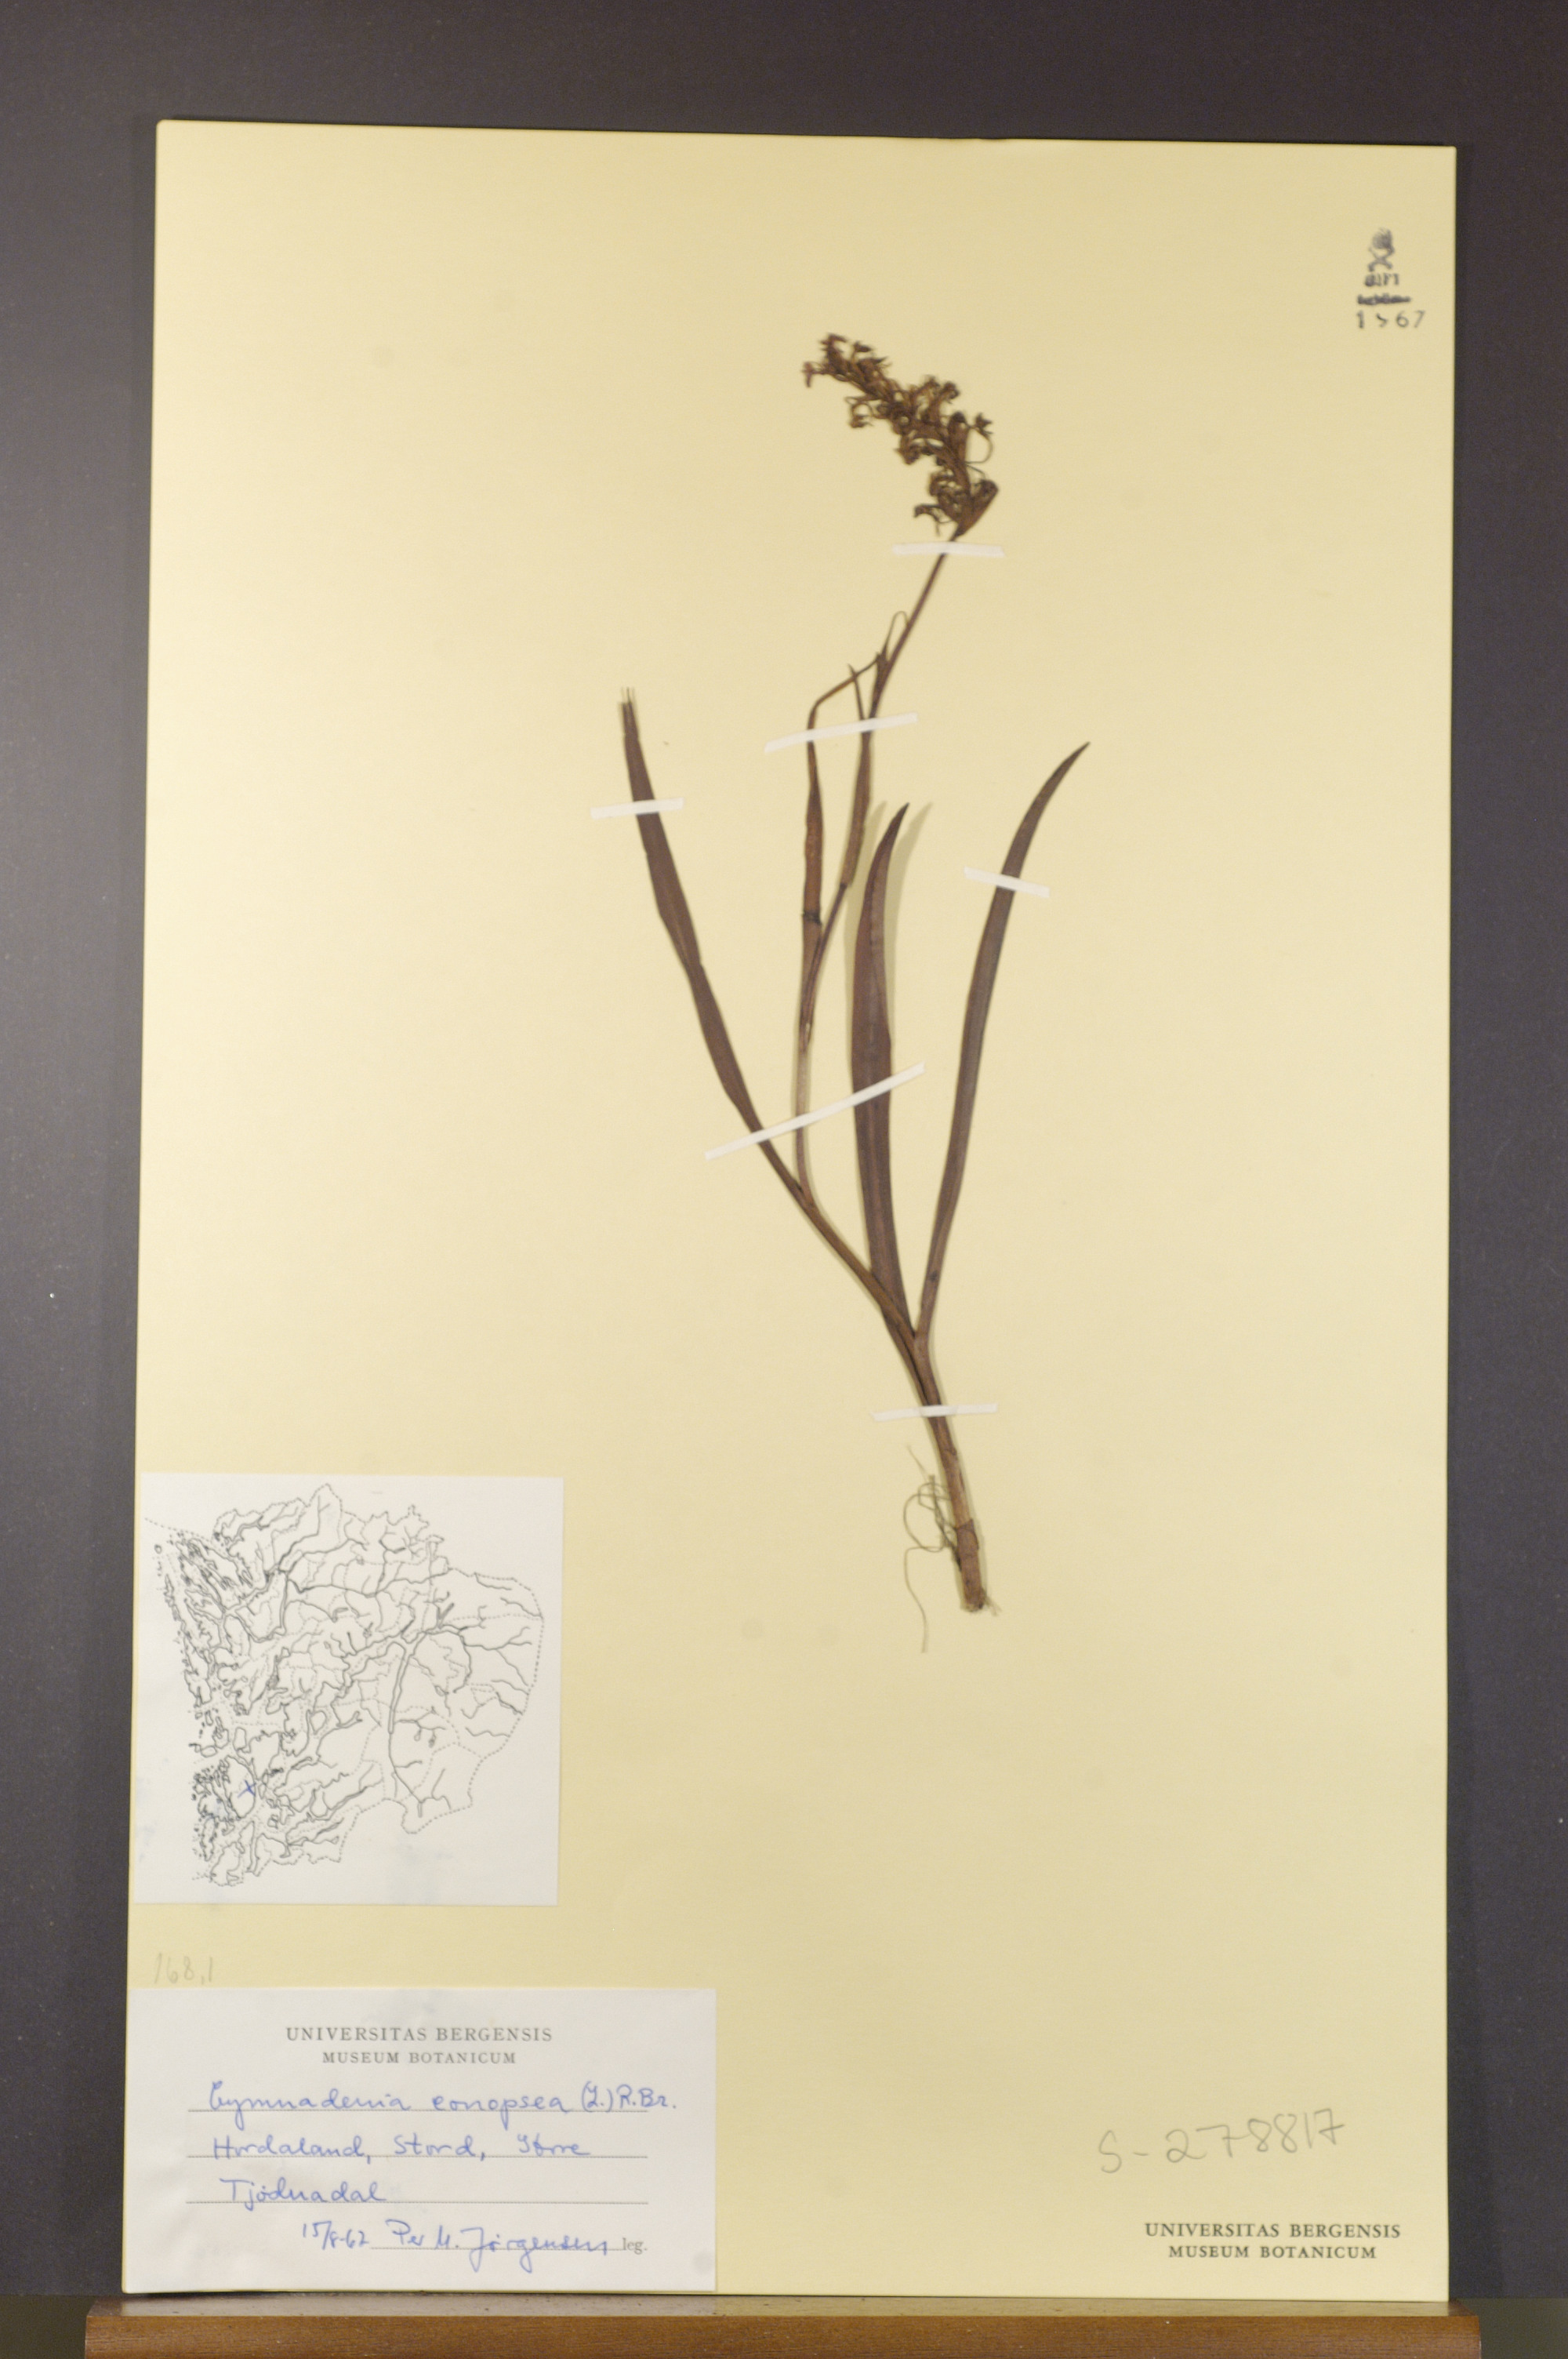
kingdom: Plantae
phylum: Tracheophyta
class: Liliopsida
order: Asparagales
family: Orchidaceae
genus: Gymnadenia
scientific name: Gymnadenia conopsea
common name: Fragrant orchid
